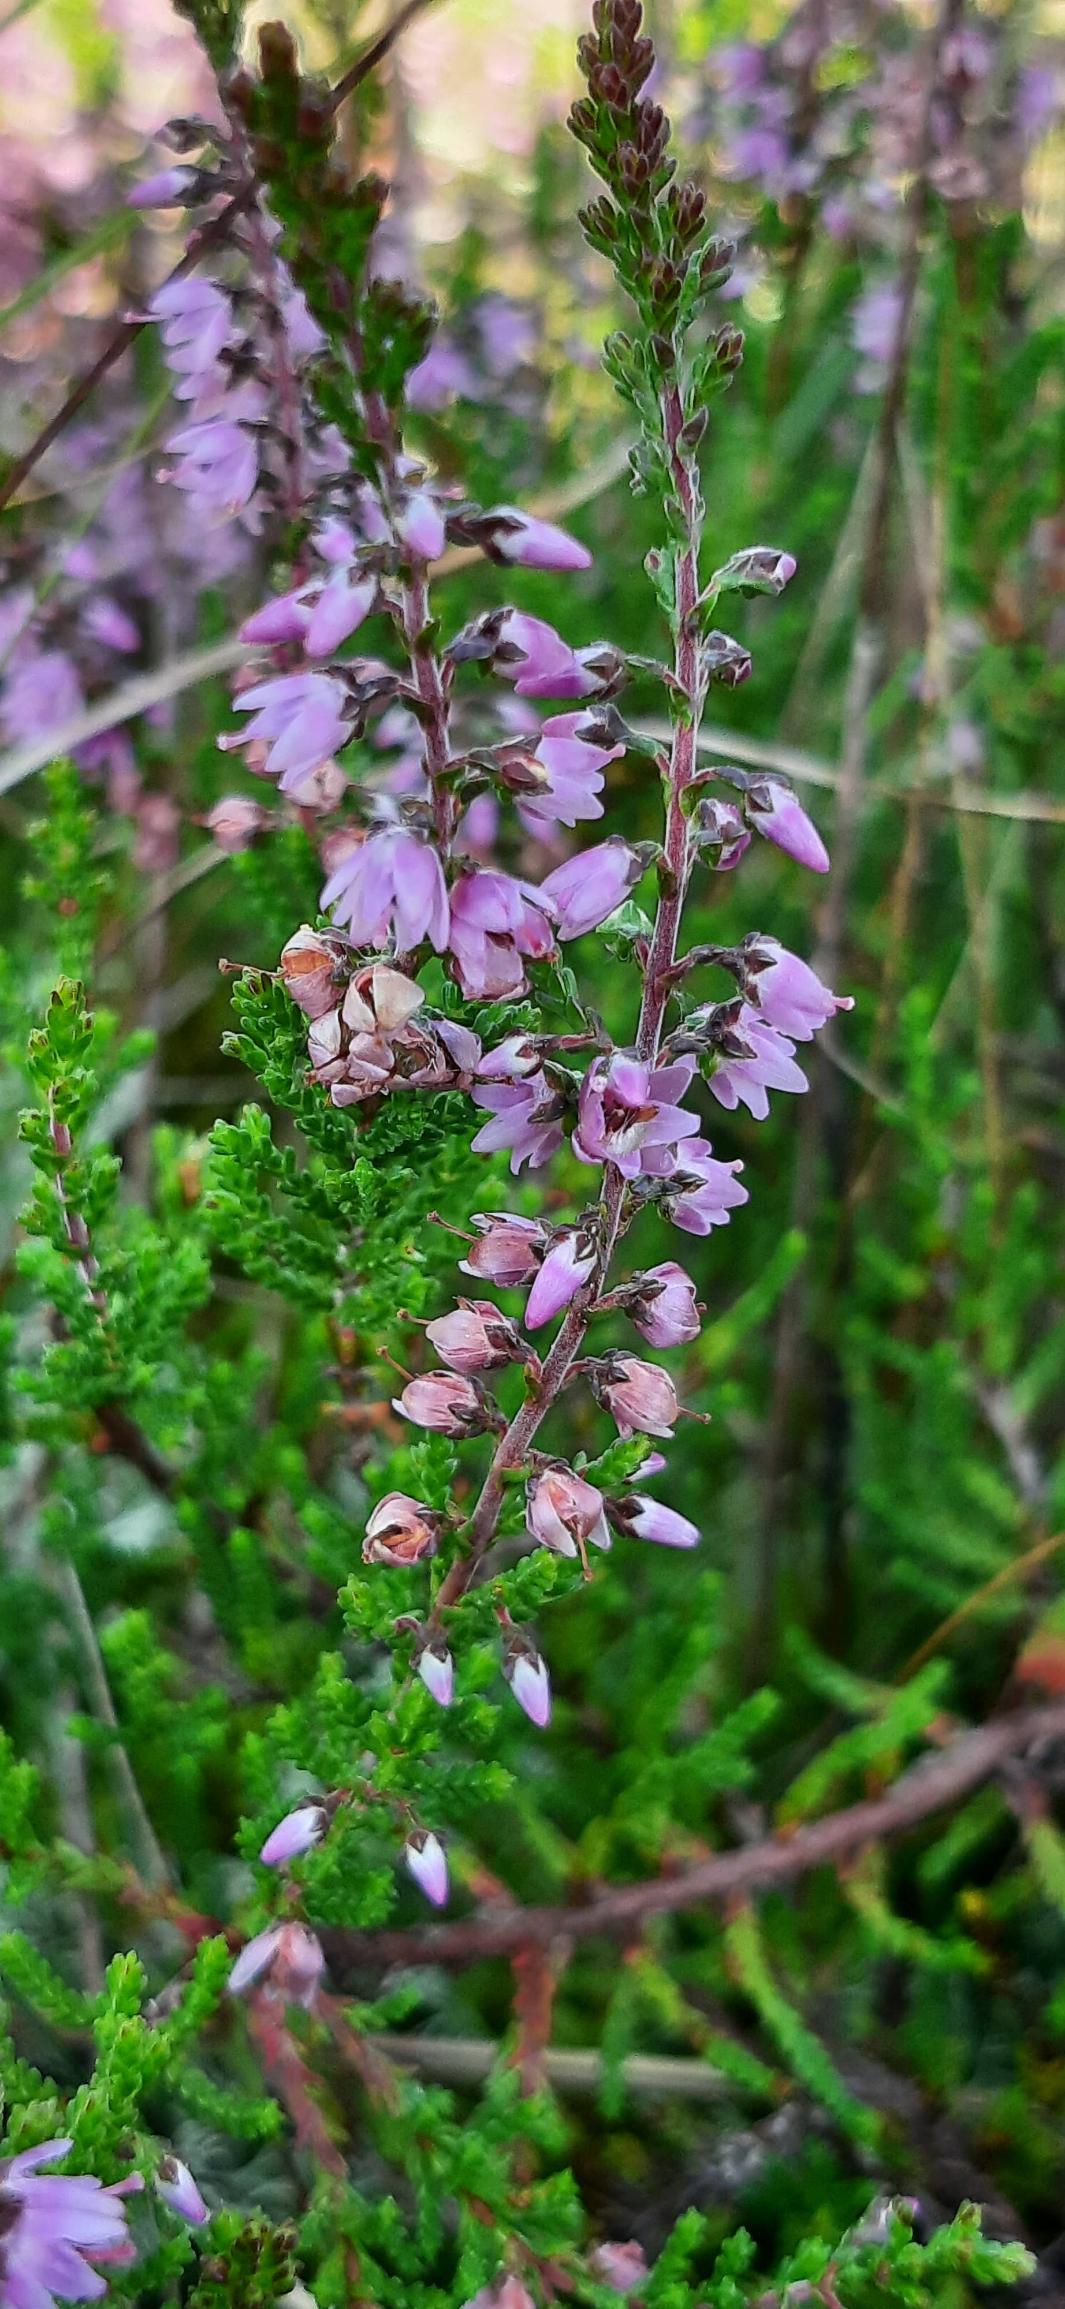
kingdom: Plantae
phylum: Tracheophyta
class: Magnoliopsida
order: Ericales
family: Ericaceae
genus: Calluna
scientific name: Calluna vulgaris
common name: Hedelyng
